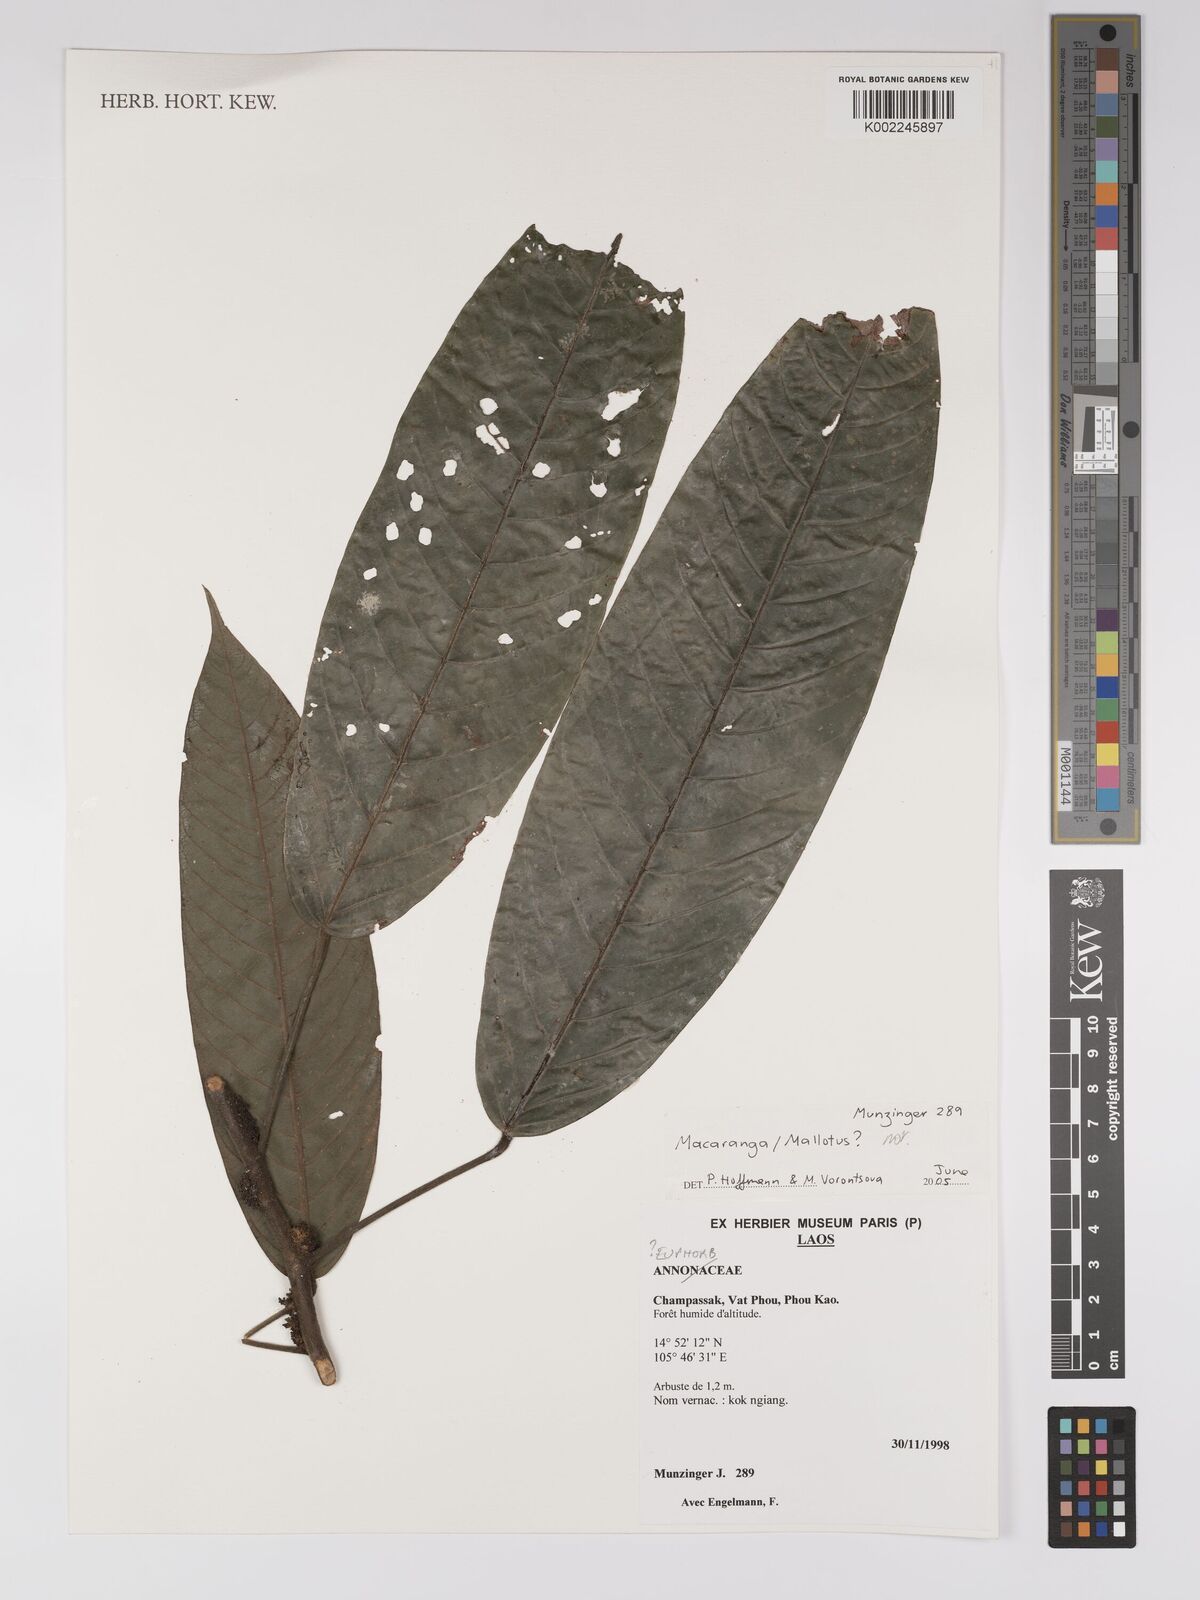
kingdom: Plantae
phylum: Tracheophyta
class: Magnoliopsida
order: Malpighiales
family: Euphorbiaceae
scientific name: Euphorbiaceae
